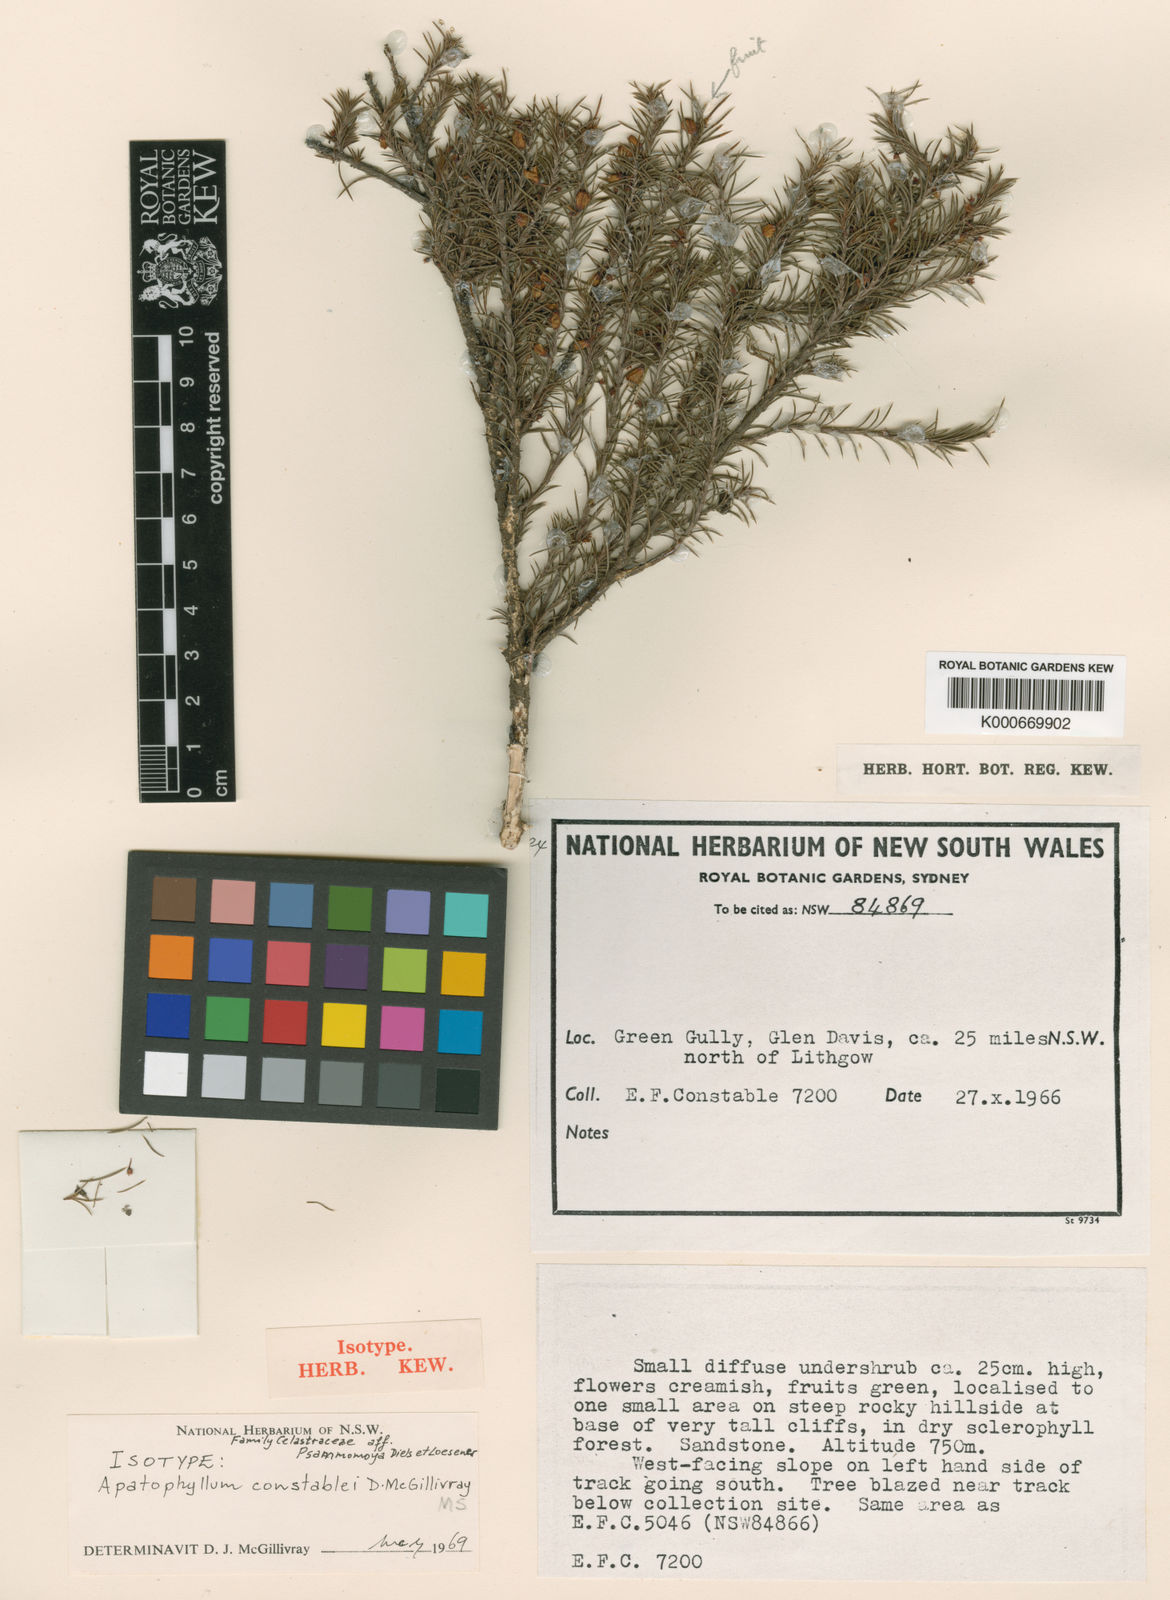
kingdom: Plantae
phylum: Tracheophyta
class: Magnoliopsida
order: Celastrales
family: Celastraceae
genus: Apatophyllum
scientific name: Apatophyllum constablei
